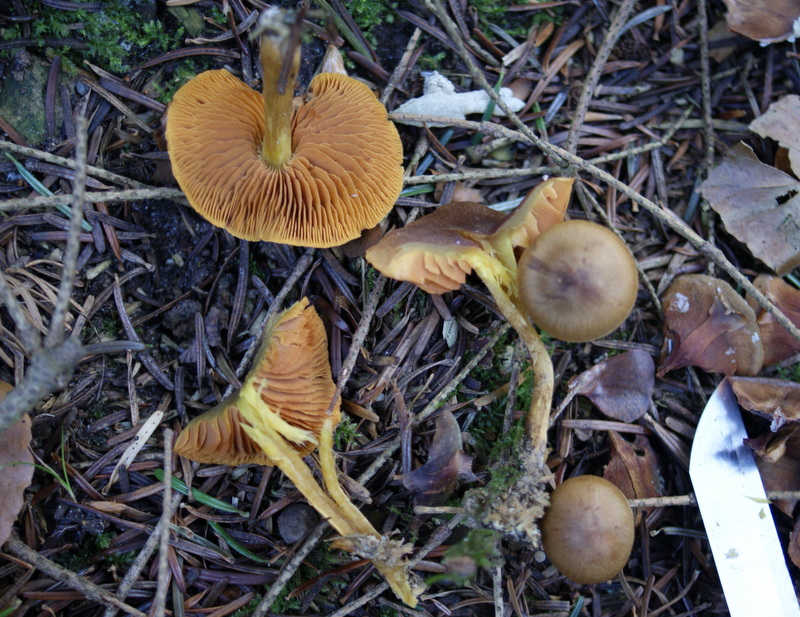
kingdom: Fungi
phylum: Basidiomycota
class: Agaricomycetes
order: Agaricales
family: Cortinariaceae
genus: Cortinarius
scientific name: Cortinarius malicorius
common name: grønkødet slørhat
